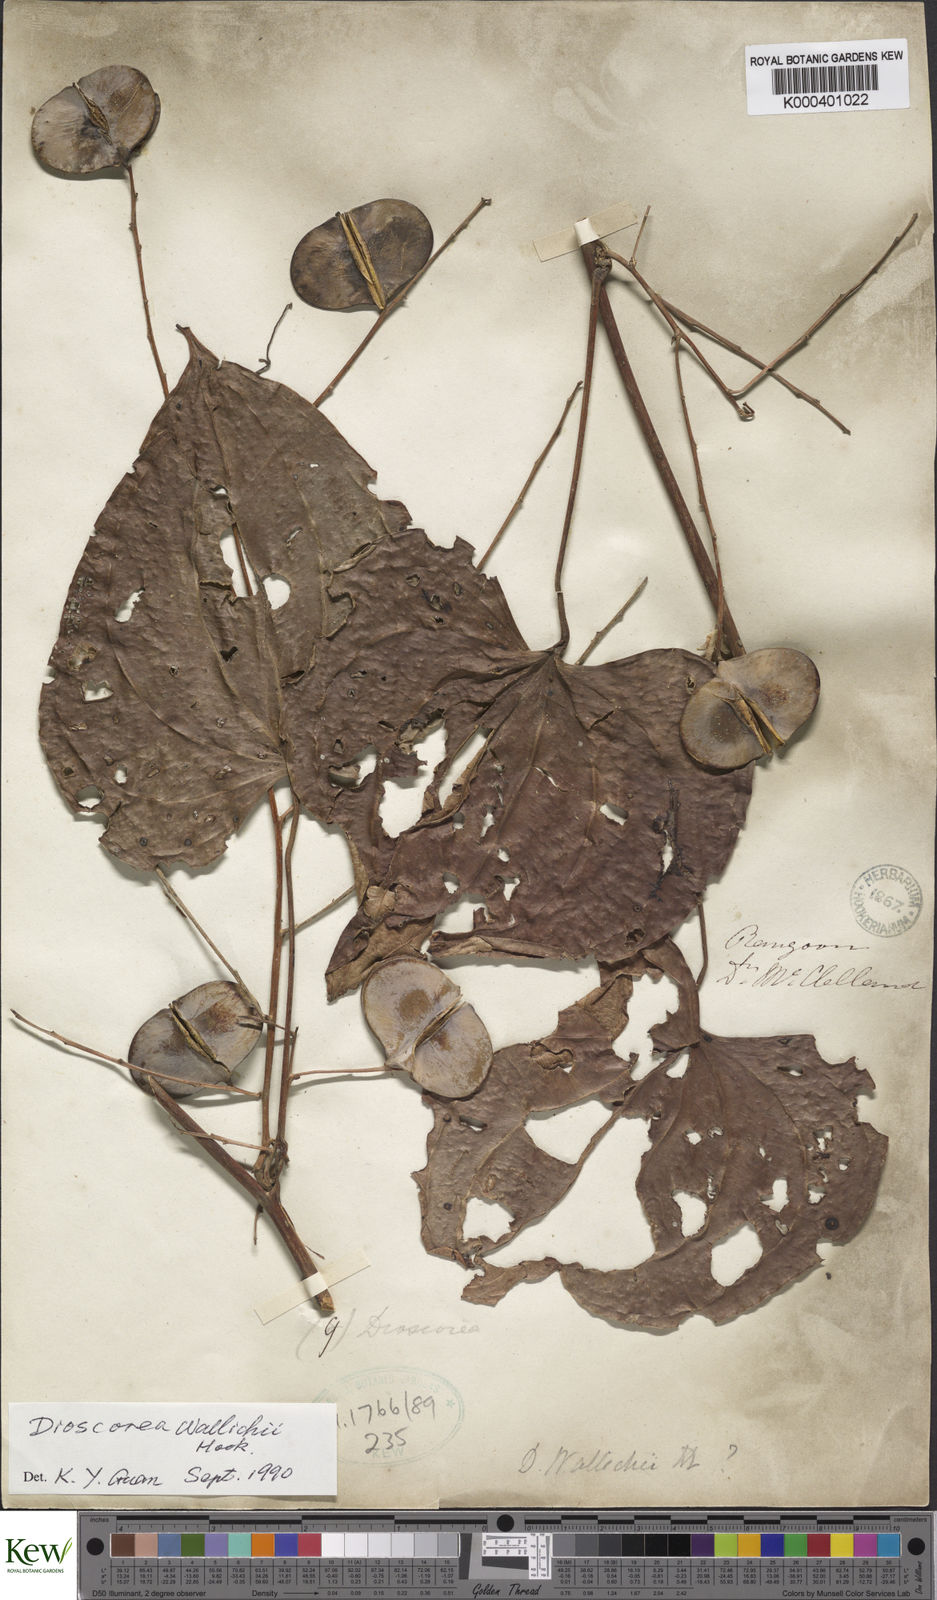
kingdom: Plantae
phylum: Tracheophyta
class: Liliopsida
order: Dioscoreales
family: Dioscoreaceae
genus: Dioscorea
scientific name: Dioscorea wallichii
